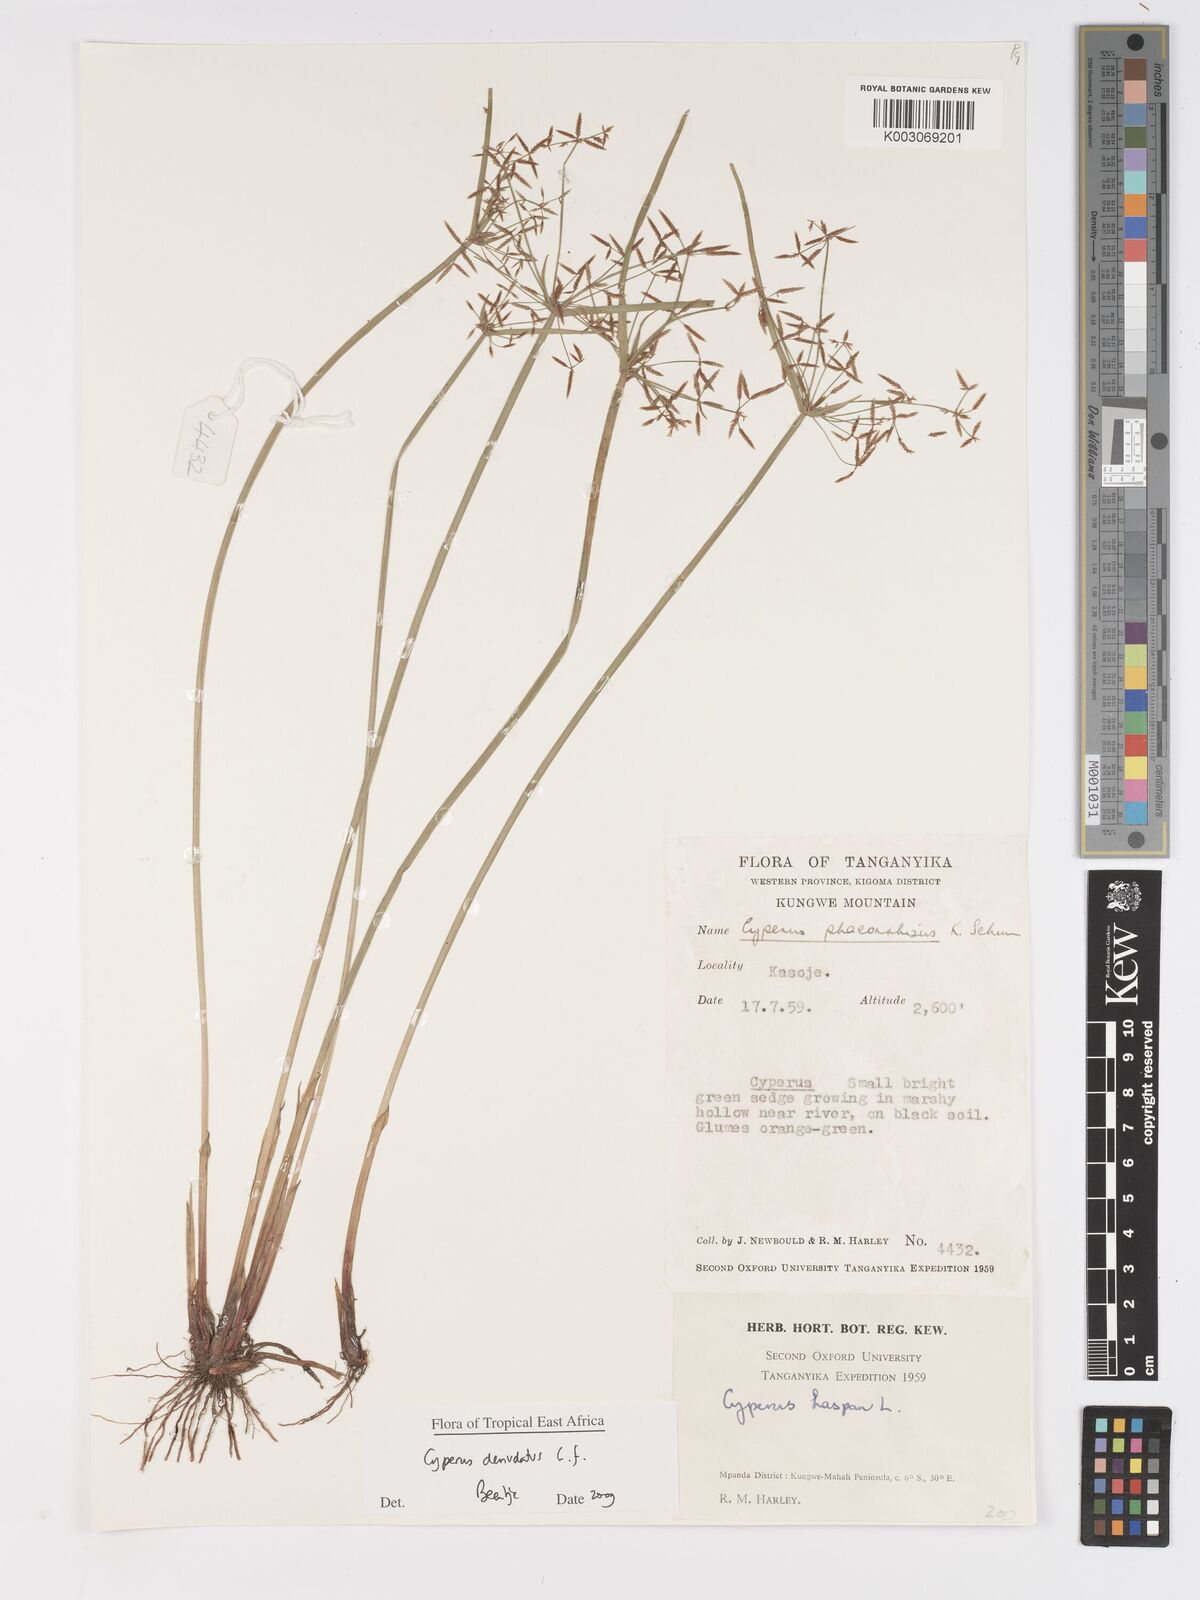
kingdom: Plantae
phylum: Tracheophyta
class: Liliopsida
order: Poales
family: Cyperaceae
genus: Cyperus
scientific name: Cyperus denudatus
